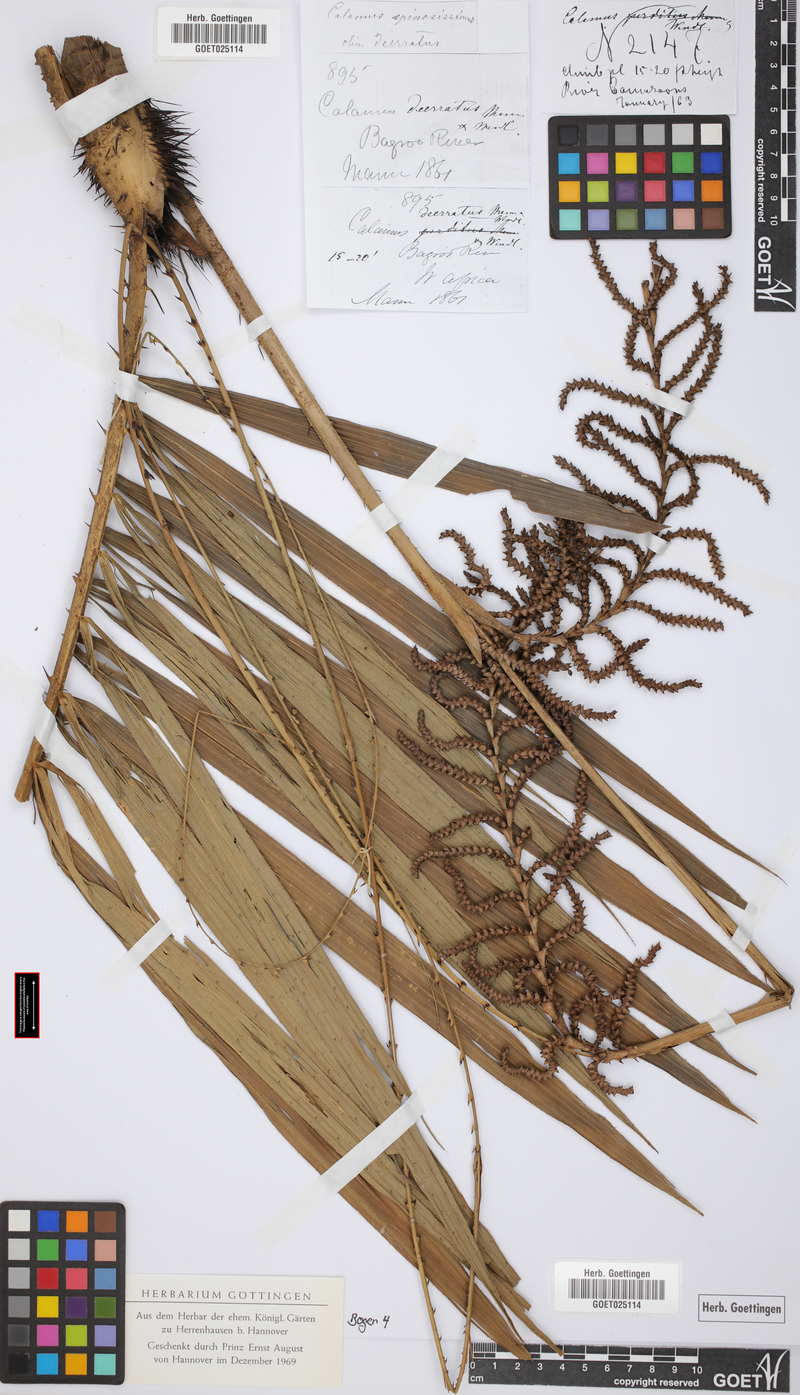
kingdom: Plantae
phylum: Tracheophyta
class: Liliopsida
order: Arecales
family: Arecaceae
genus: Calamus
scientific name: Calamus deerratus
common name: Rattan
